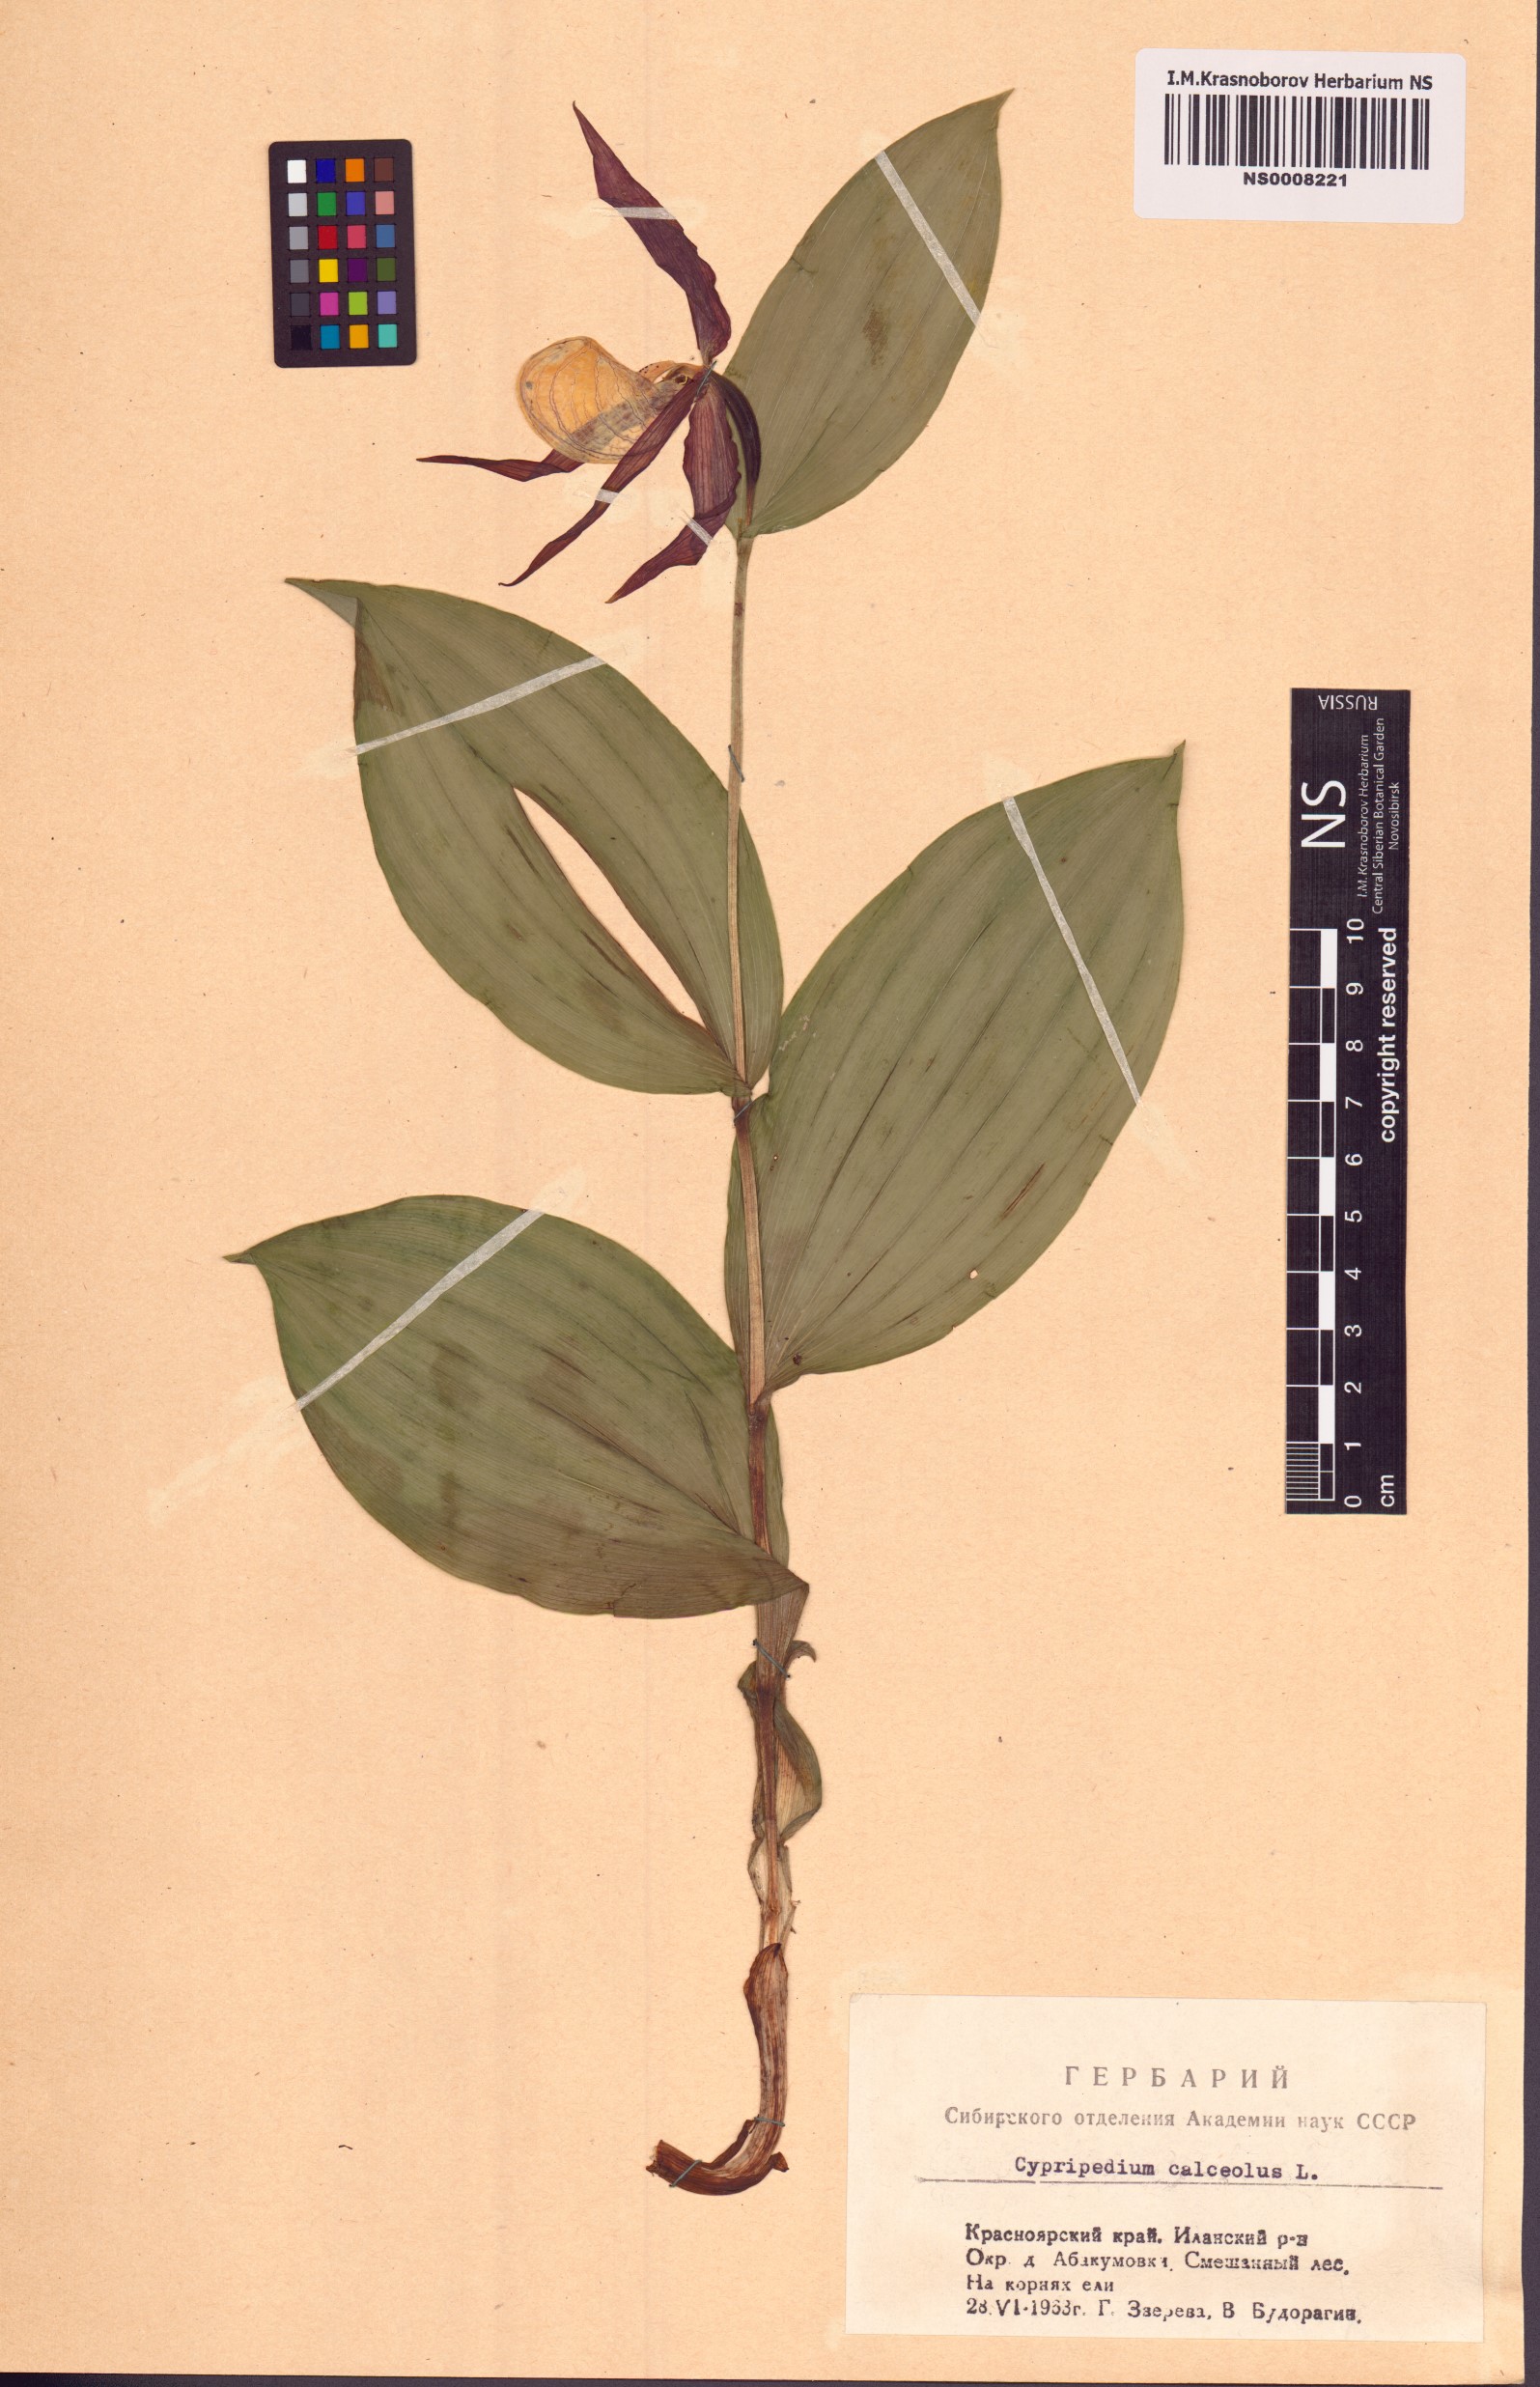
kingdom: Plantae
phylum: Tracheophyta
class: Liliopsida
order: Asparagales
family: Orchidaceae
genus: Cypripedium
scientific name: Cypripedium calceolus
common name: Lady's-slipper
